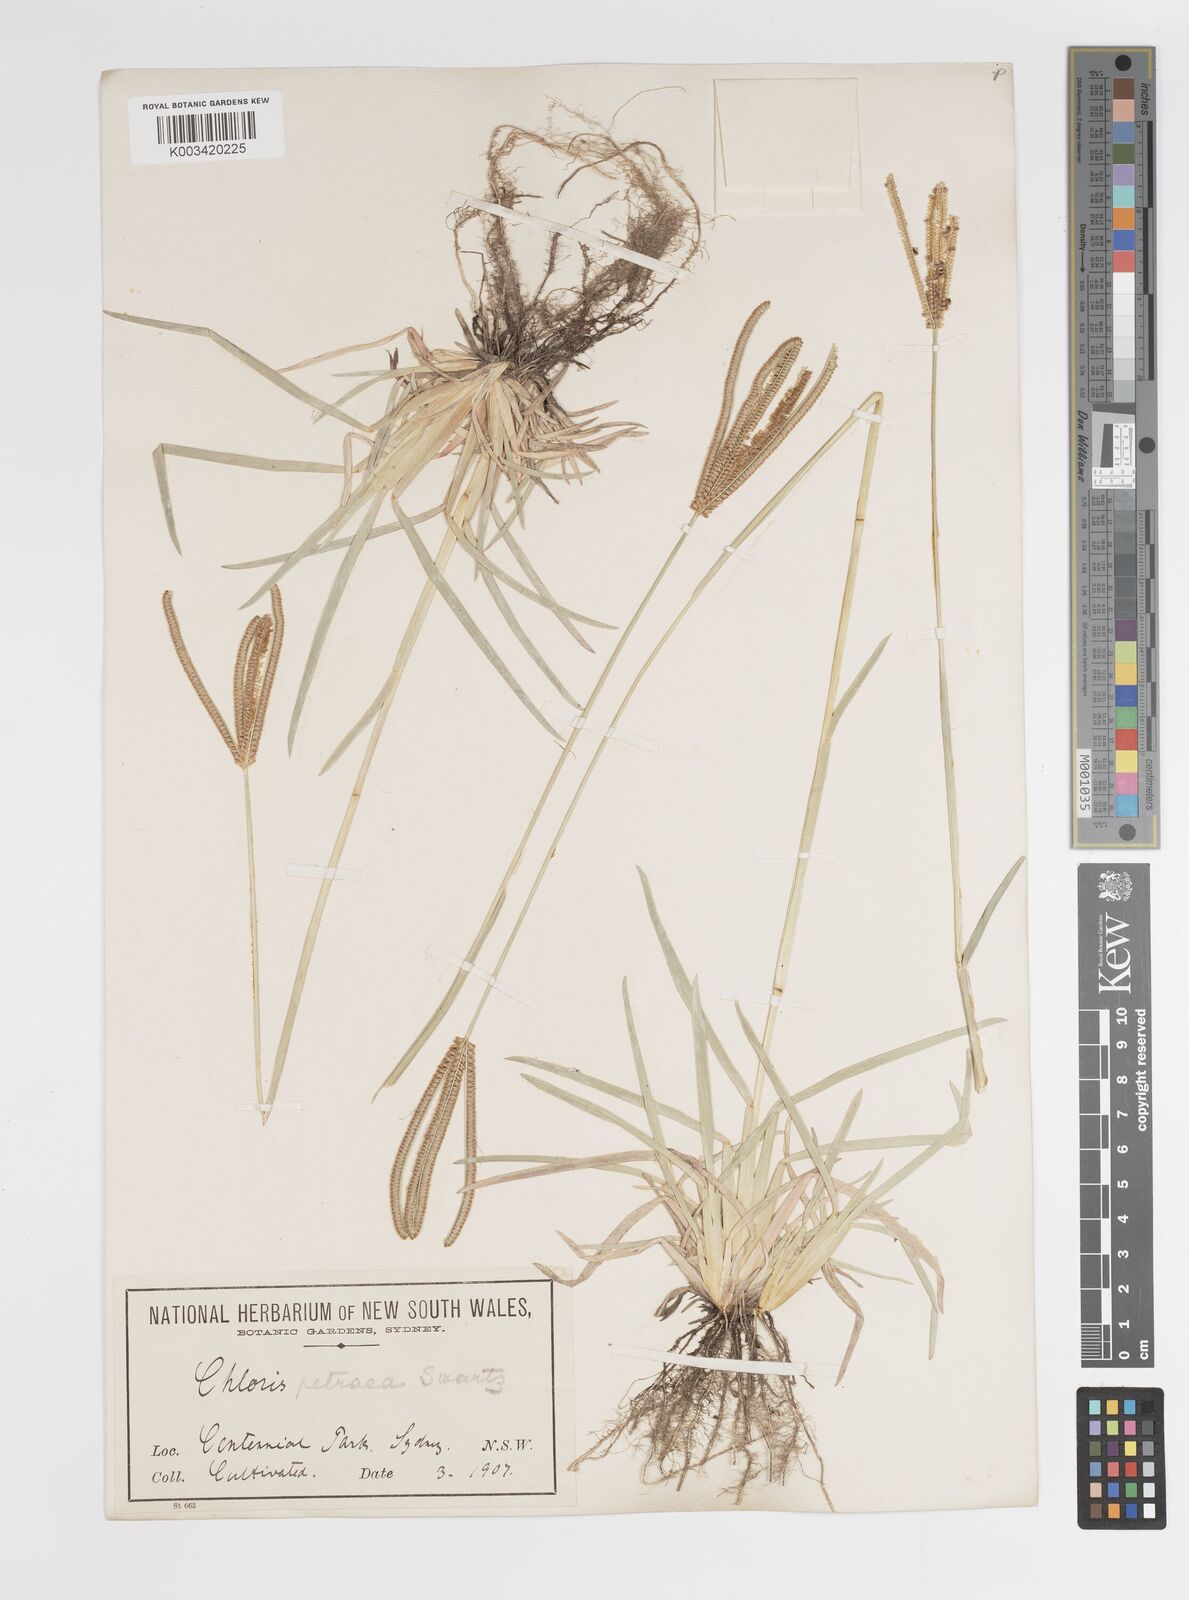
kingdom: Plantae
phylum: Tracheophyta
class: Liliopsida
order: Poales
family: Poaceae
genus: Eustachys
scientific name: Eustachys
